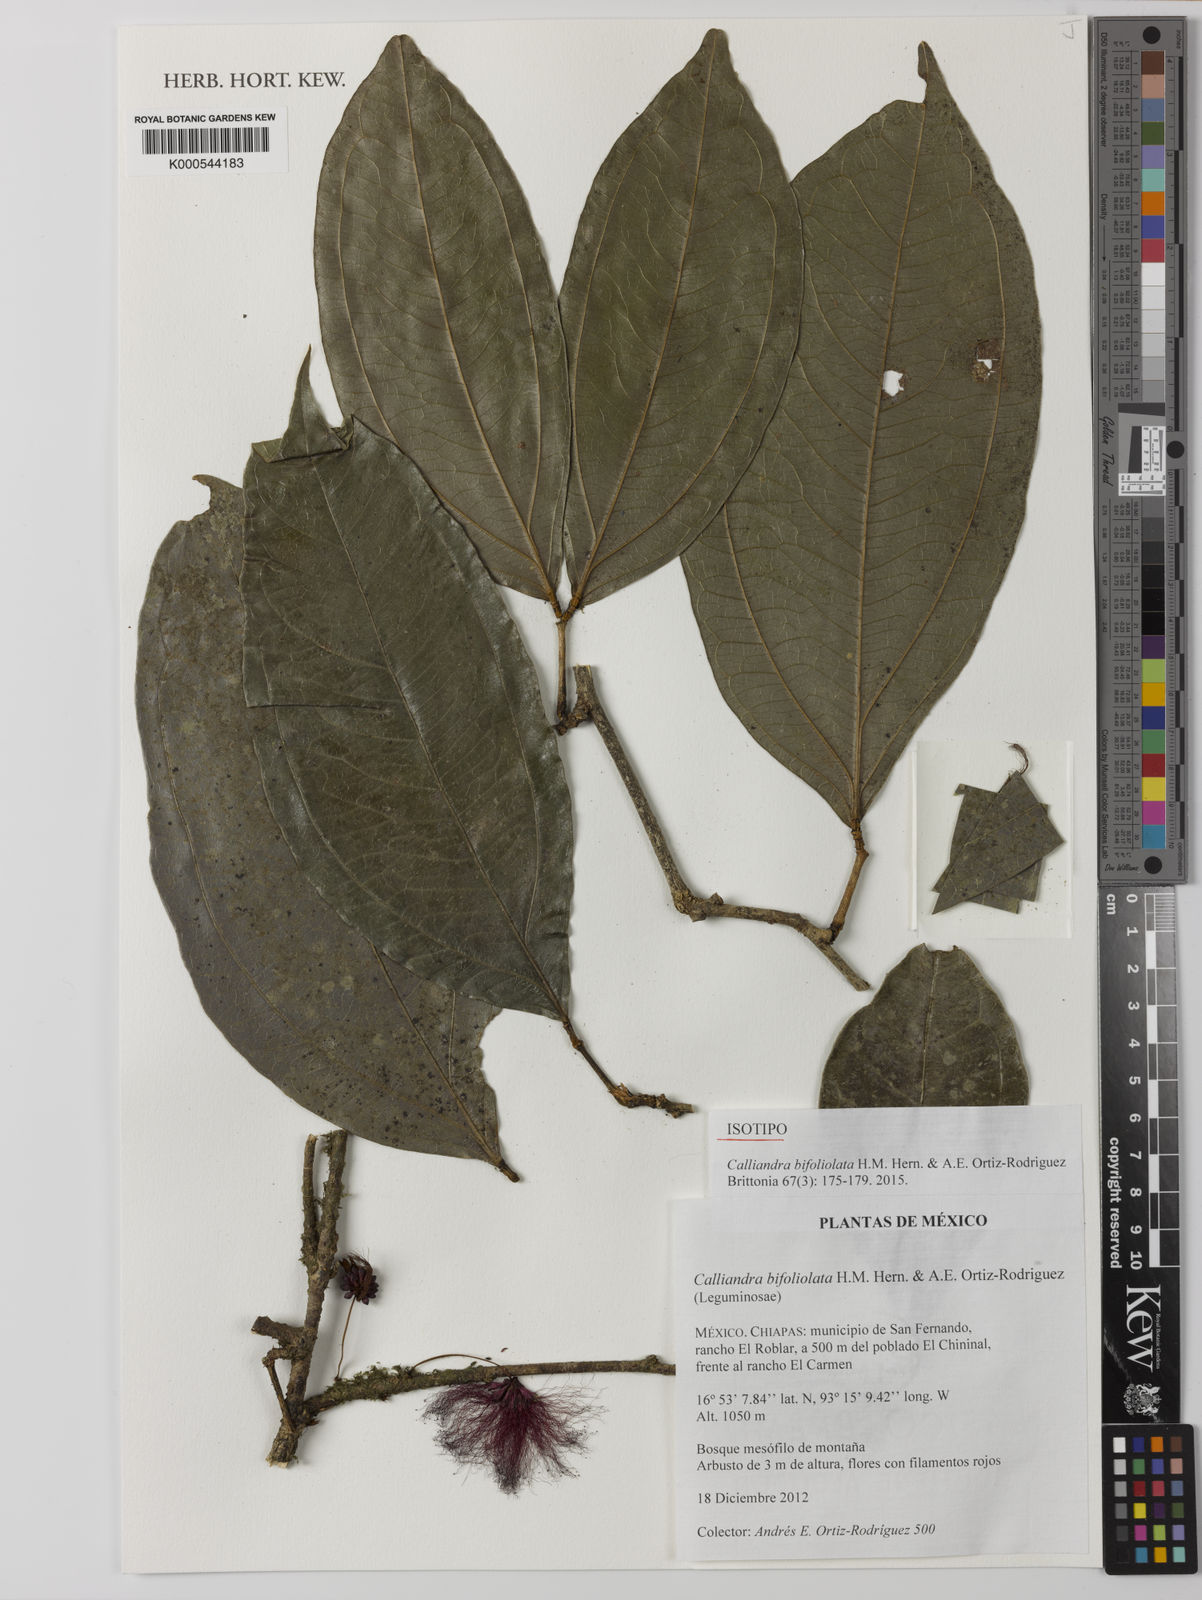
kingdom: Plantae
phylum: Tracheophyta
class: Magnoliopsida
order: Fabales
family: Fabaceae
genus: Calliandra
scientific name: Calliandra
